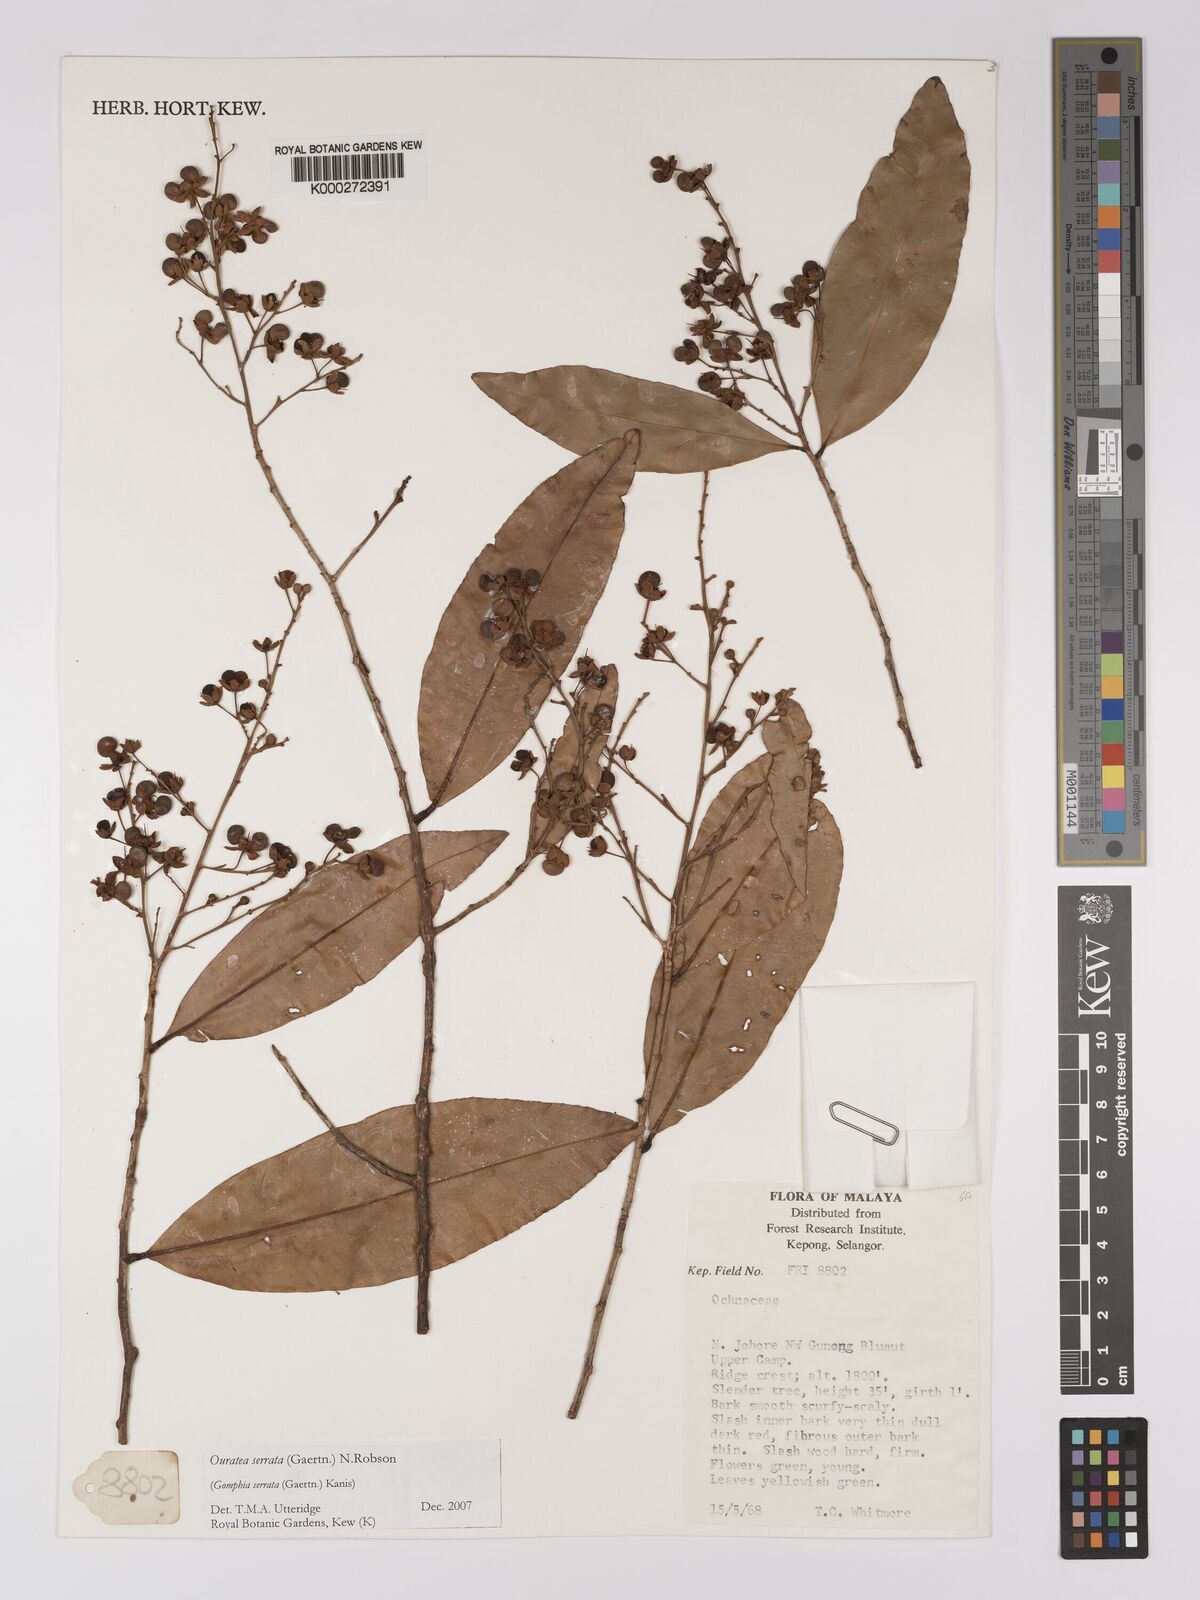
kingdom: Plantae
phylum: Tracheophyta
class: Magnoliopsida
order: Malpighiales
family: Ochnaceae
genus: Gomphia
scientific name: Gomphia serrata
